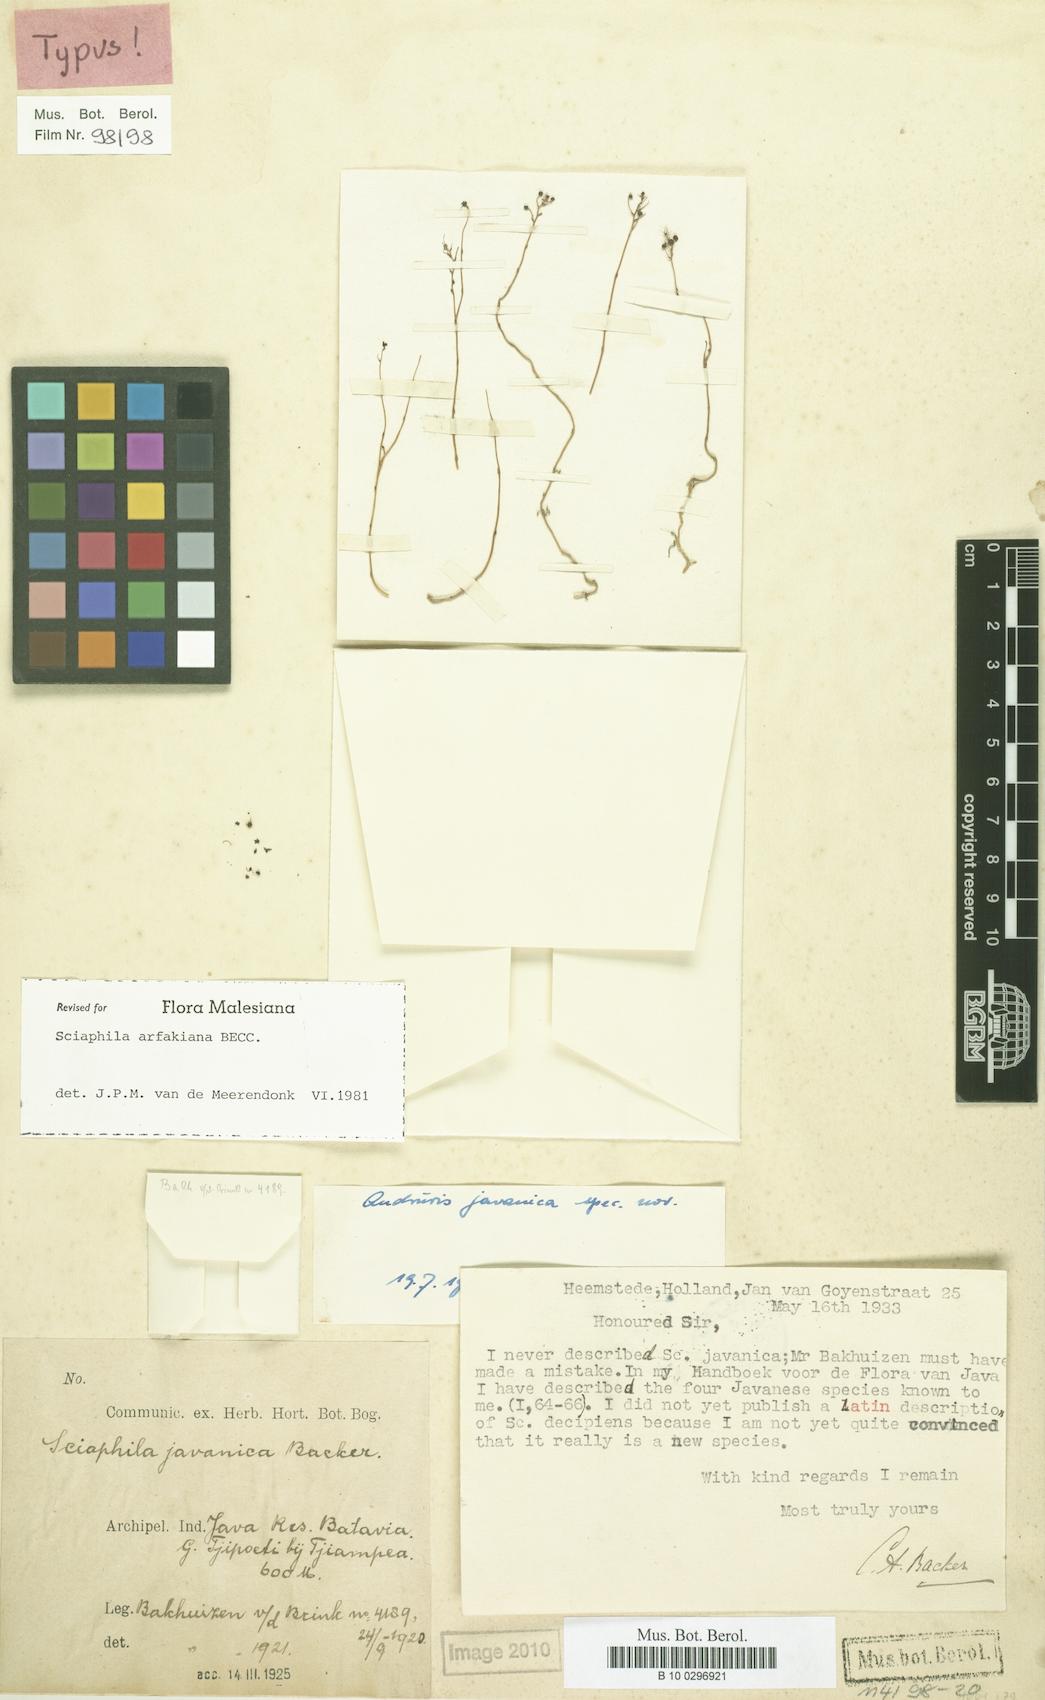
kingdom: Plantae
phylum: Tracheophyta
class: Liliopsida
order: Pandanales
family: Triuridaceae
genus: Sciaphila
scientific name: Sciaphila arfakiana
